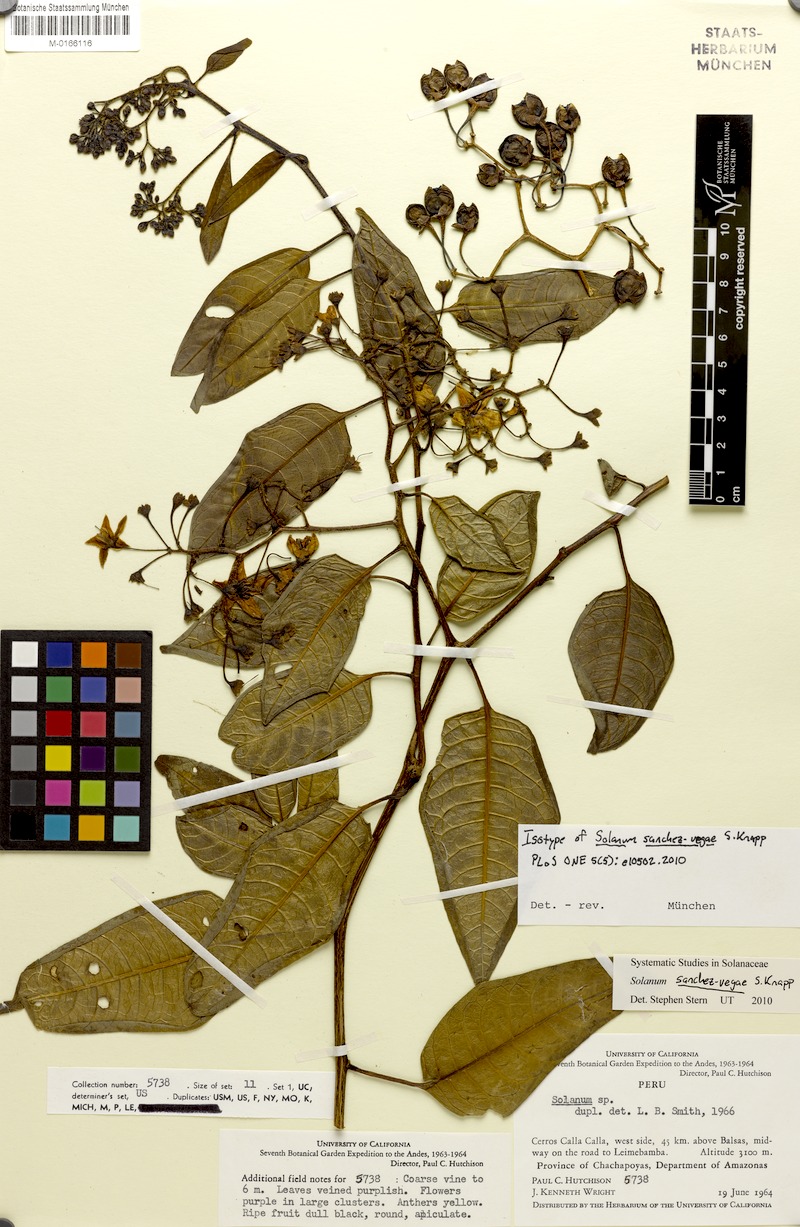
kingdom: Plantae
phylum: Tracheophyta
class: Magnoliopsida
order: Solanales
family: Solanaceae
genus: Solanum
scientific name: Solanum sanchez-vegae
